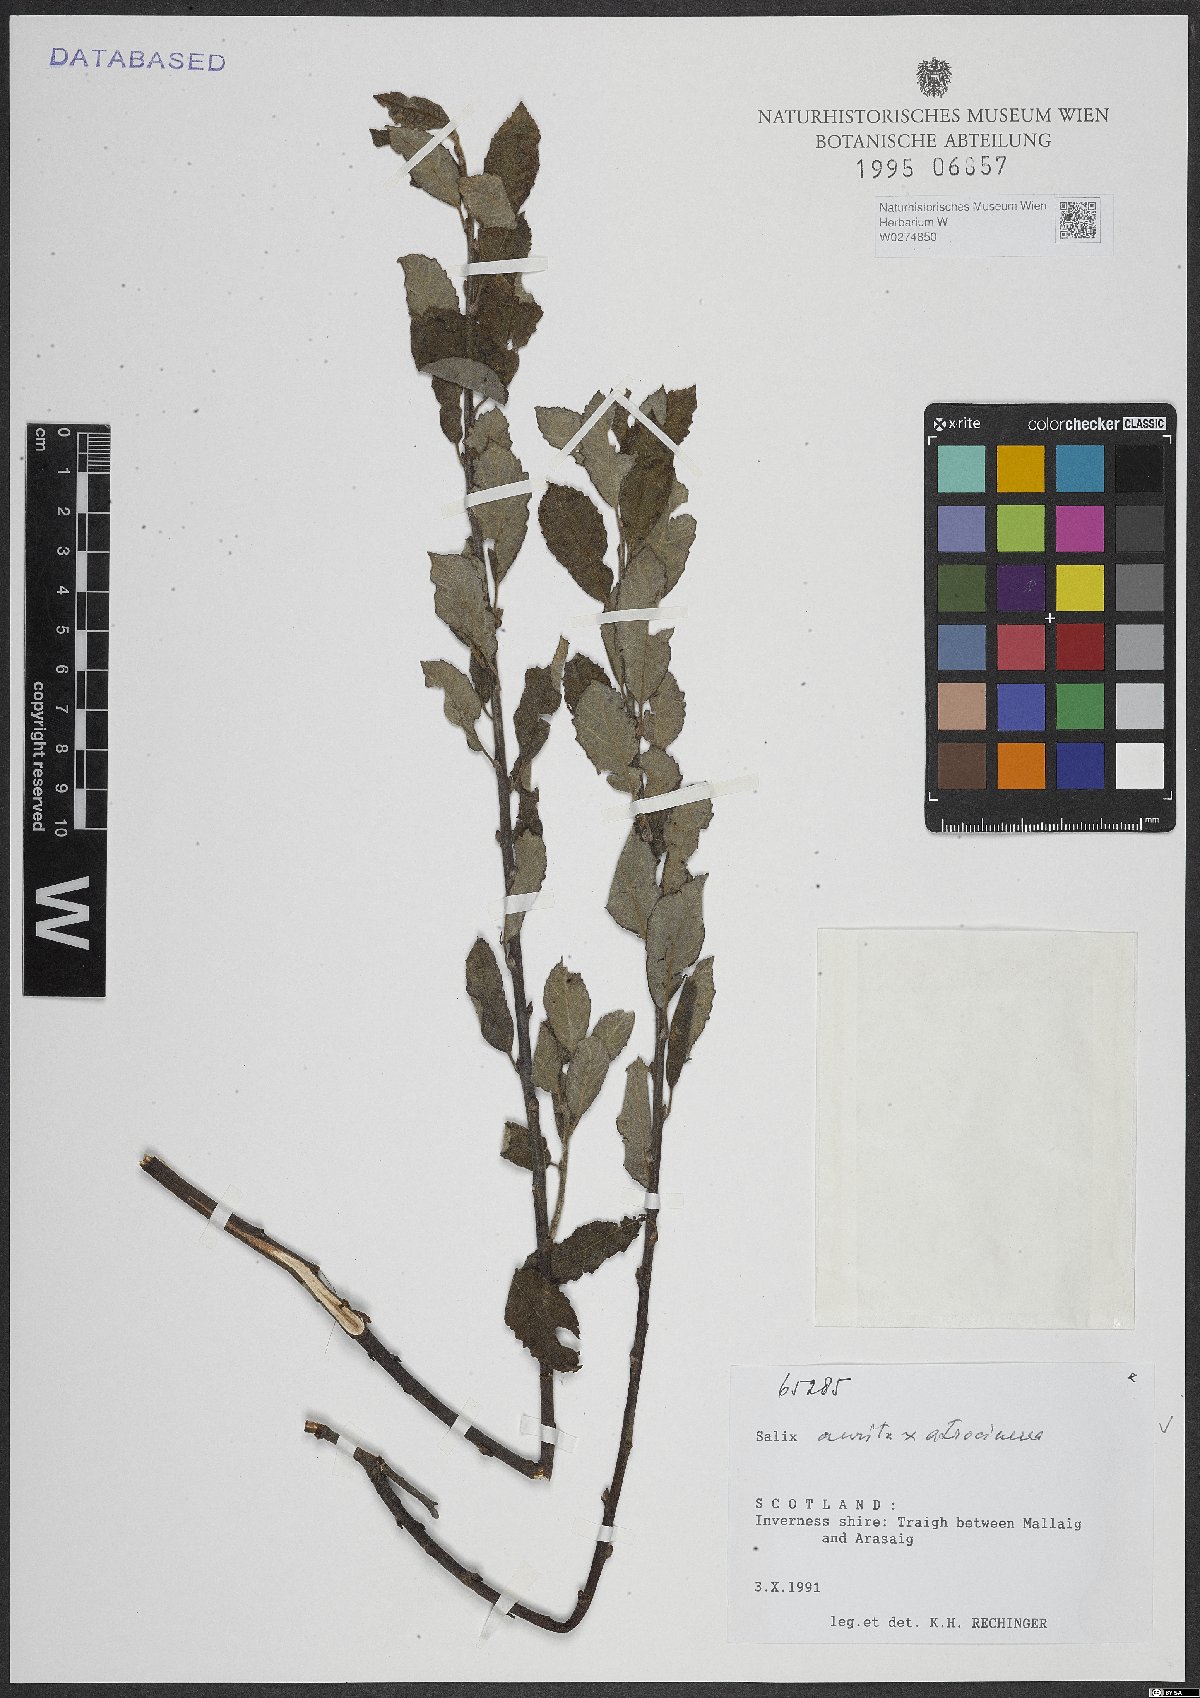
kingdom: Plantae
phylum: Tracheophyta
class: Magnoliopsida
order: Malpighiales
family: Salicaceae
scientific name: Salicaceae
